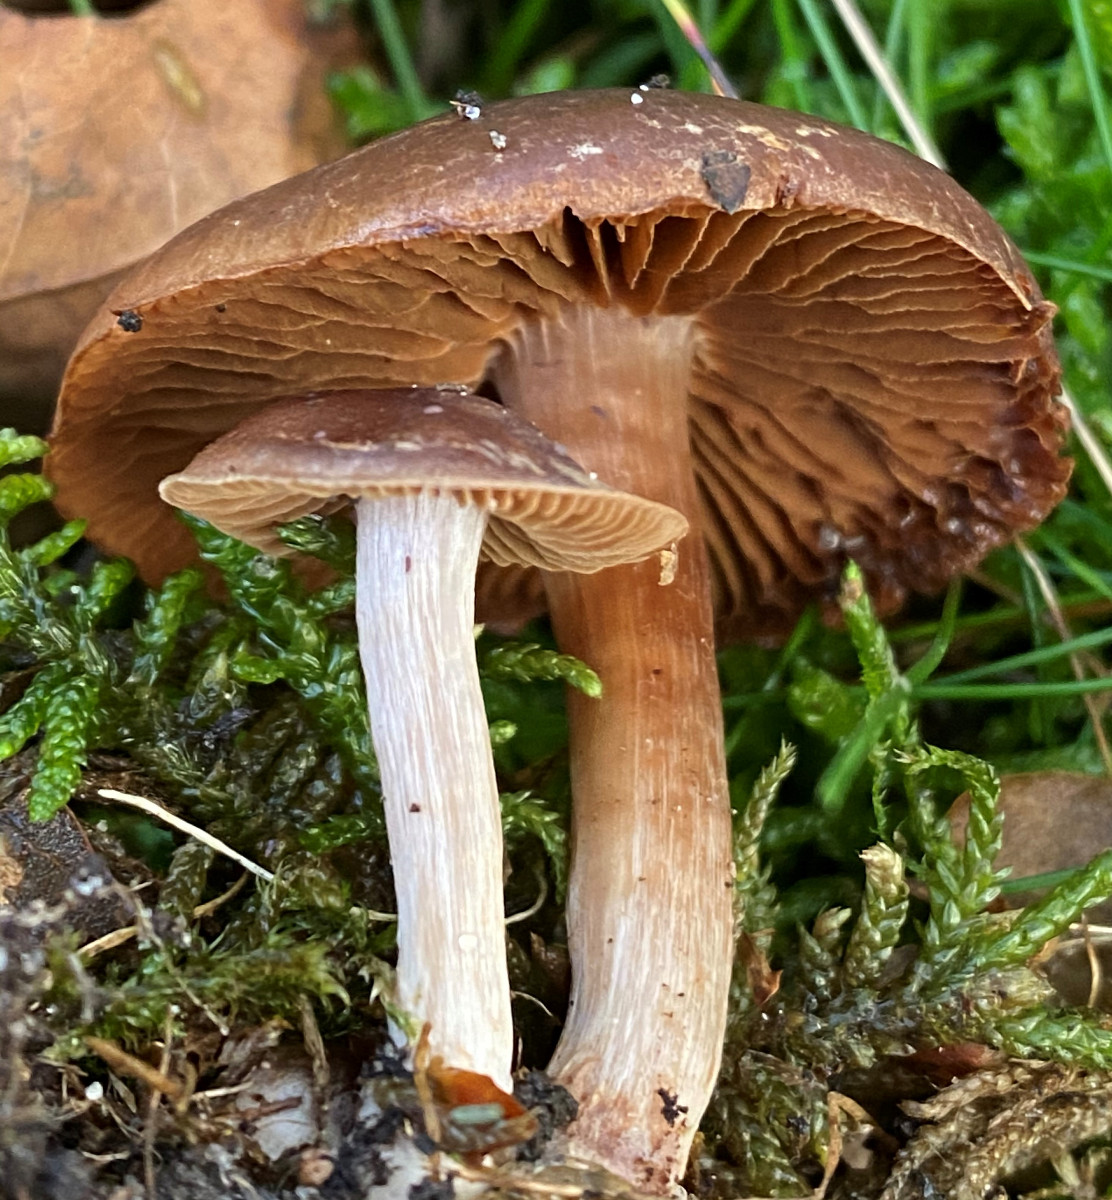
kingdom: Fungi
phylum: Basidiomycota
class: Agaricomycetes
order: Agaricales
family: Cortinariaceae
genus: Cortinarius
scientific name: Cortinarius
